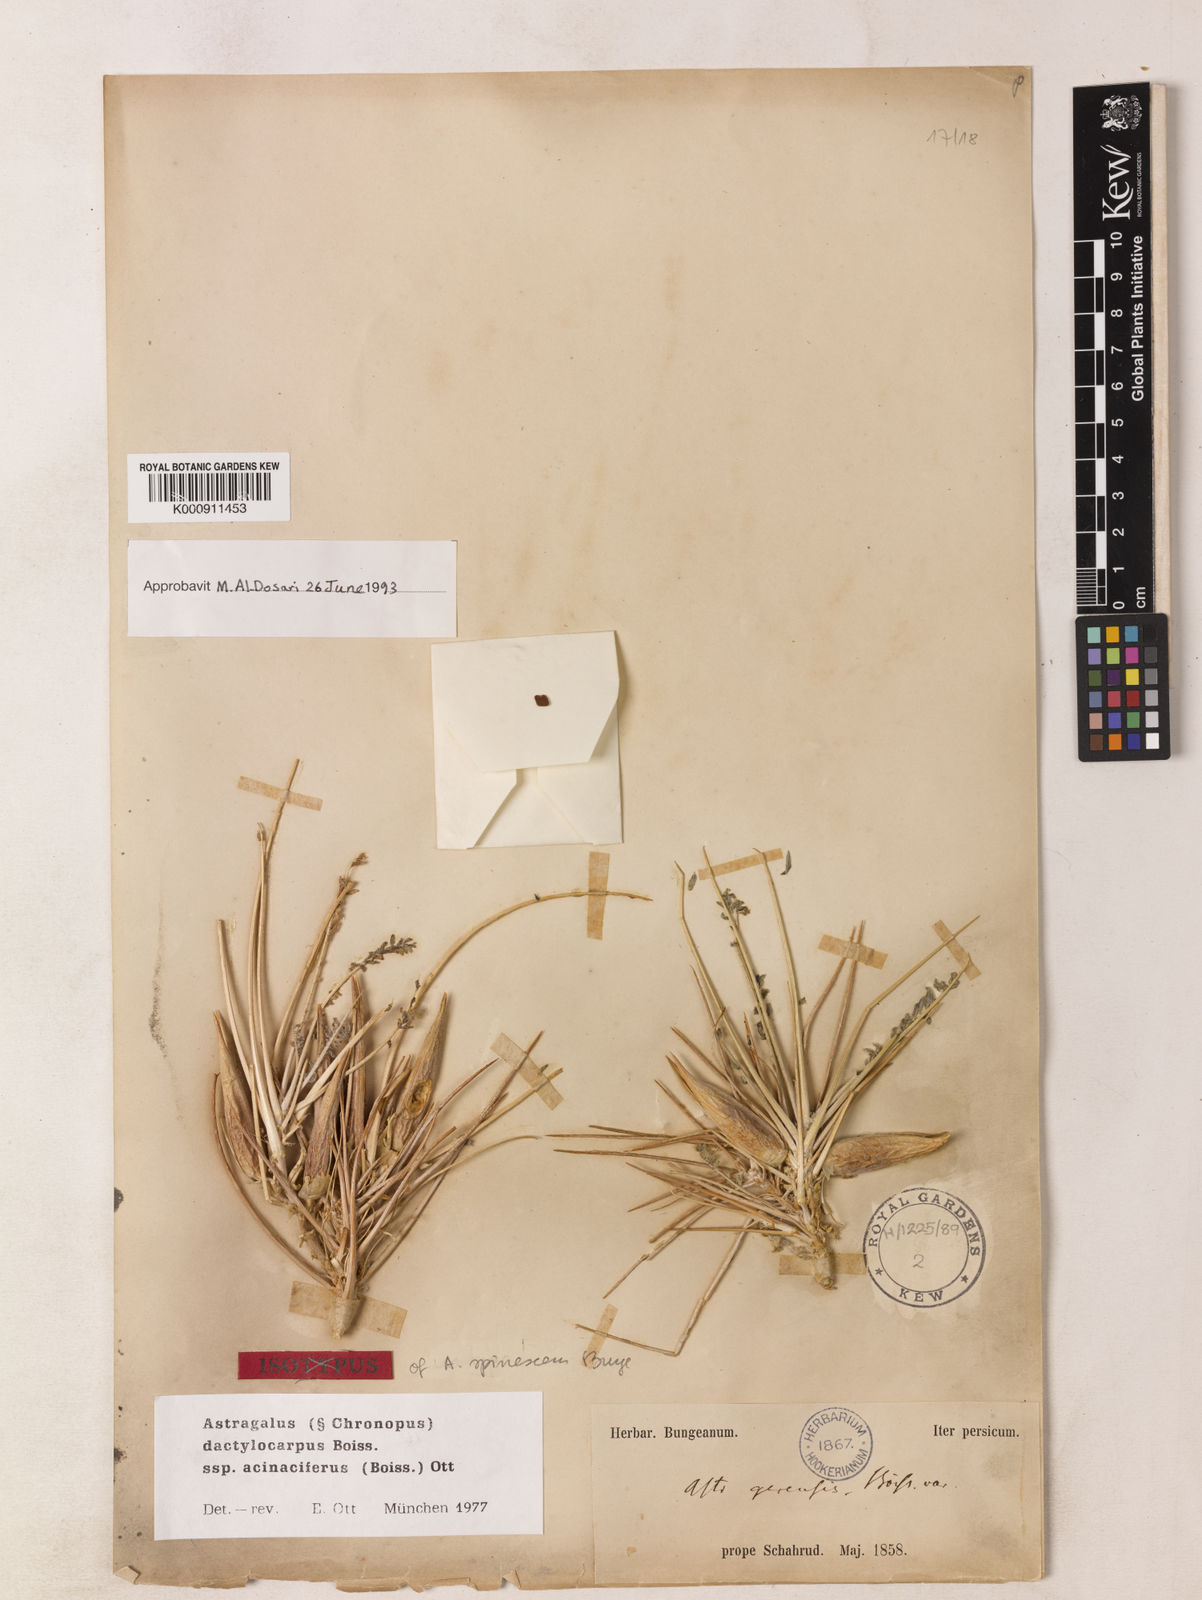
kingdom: Plantae
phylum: Tracheophyta
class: Magnoliopsida
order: Fabales
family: Fabaceae
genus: Astragalus
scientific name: Astragalus dactylocarpus
